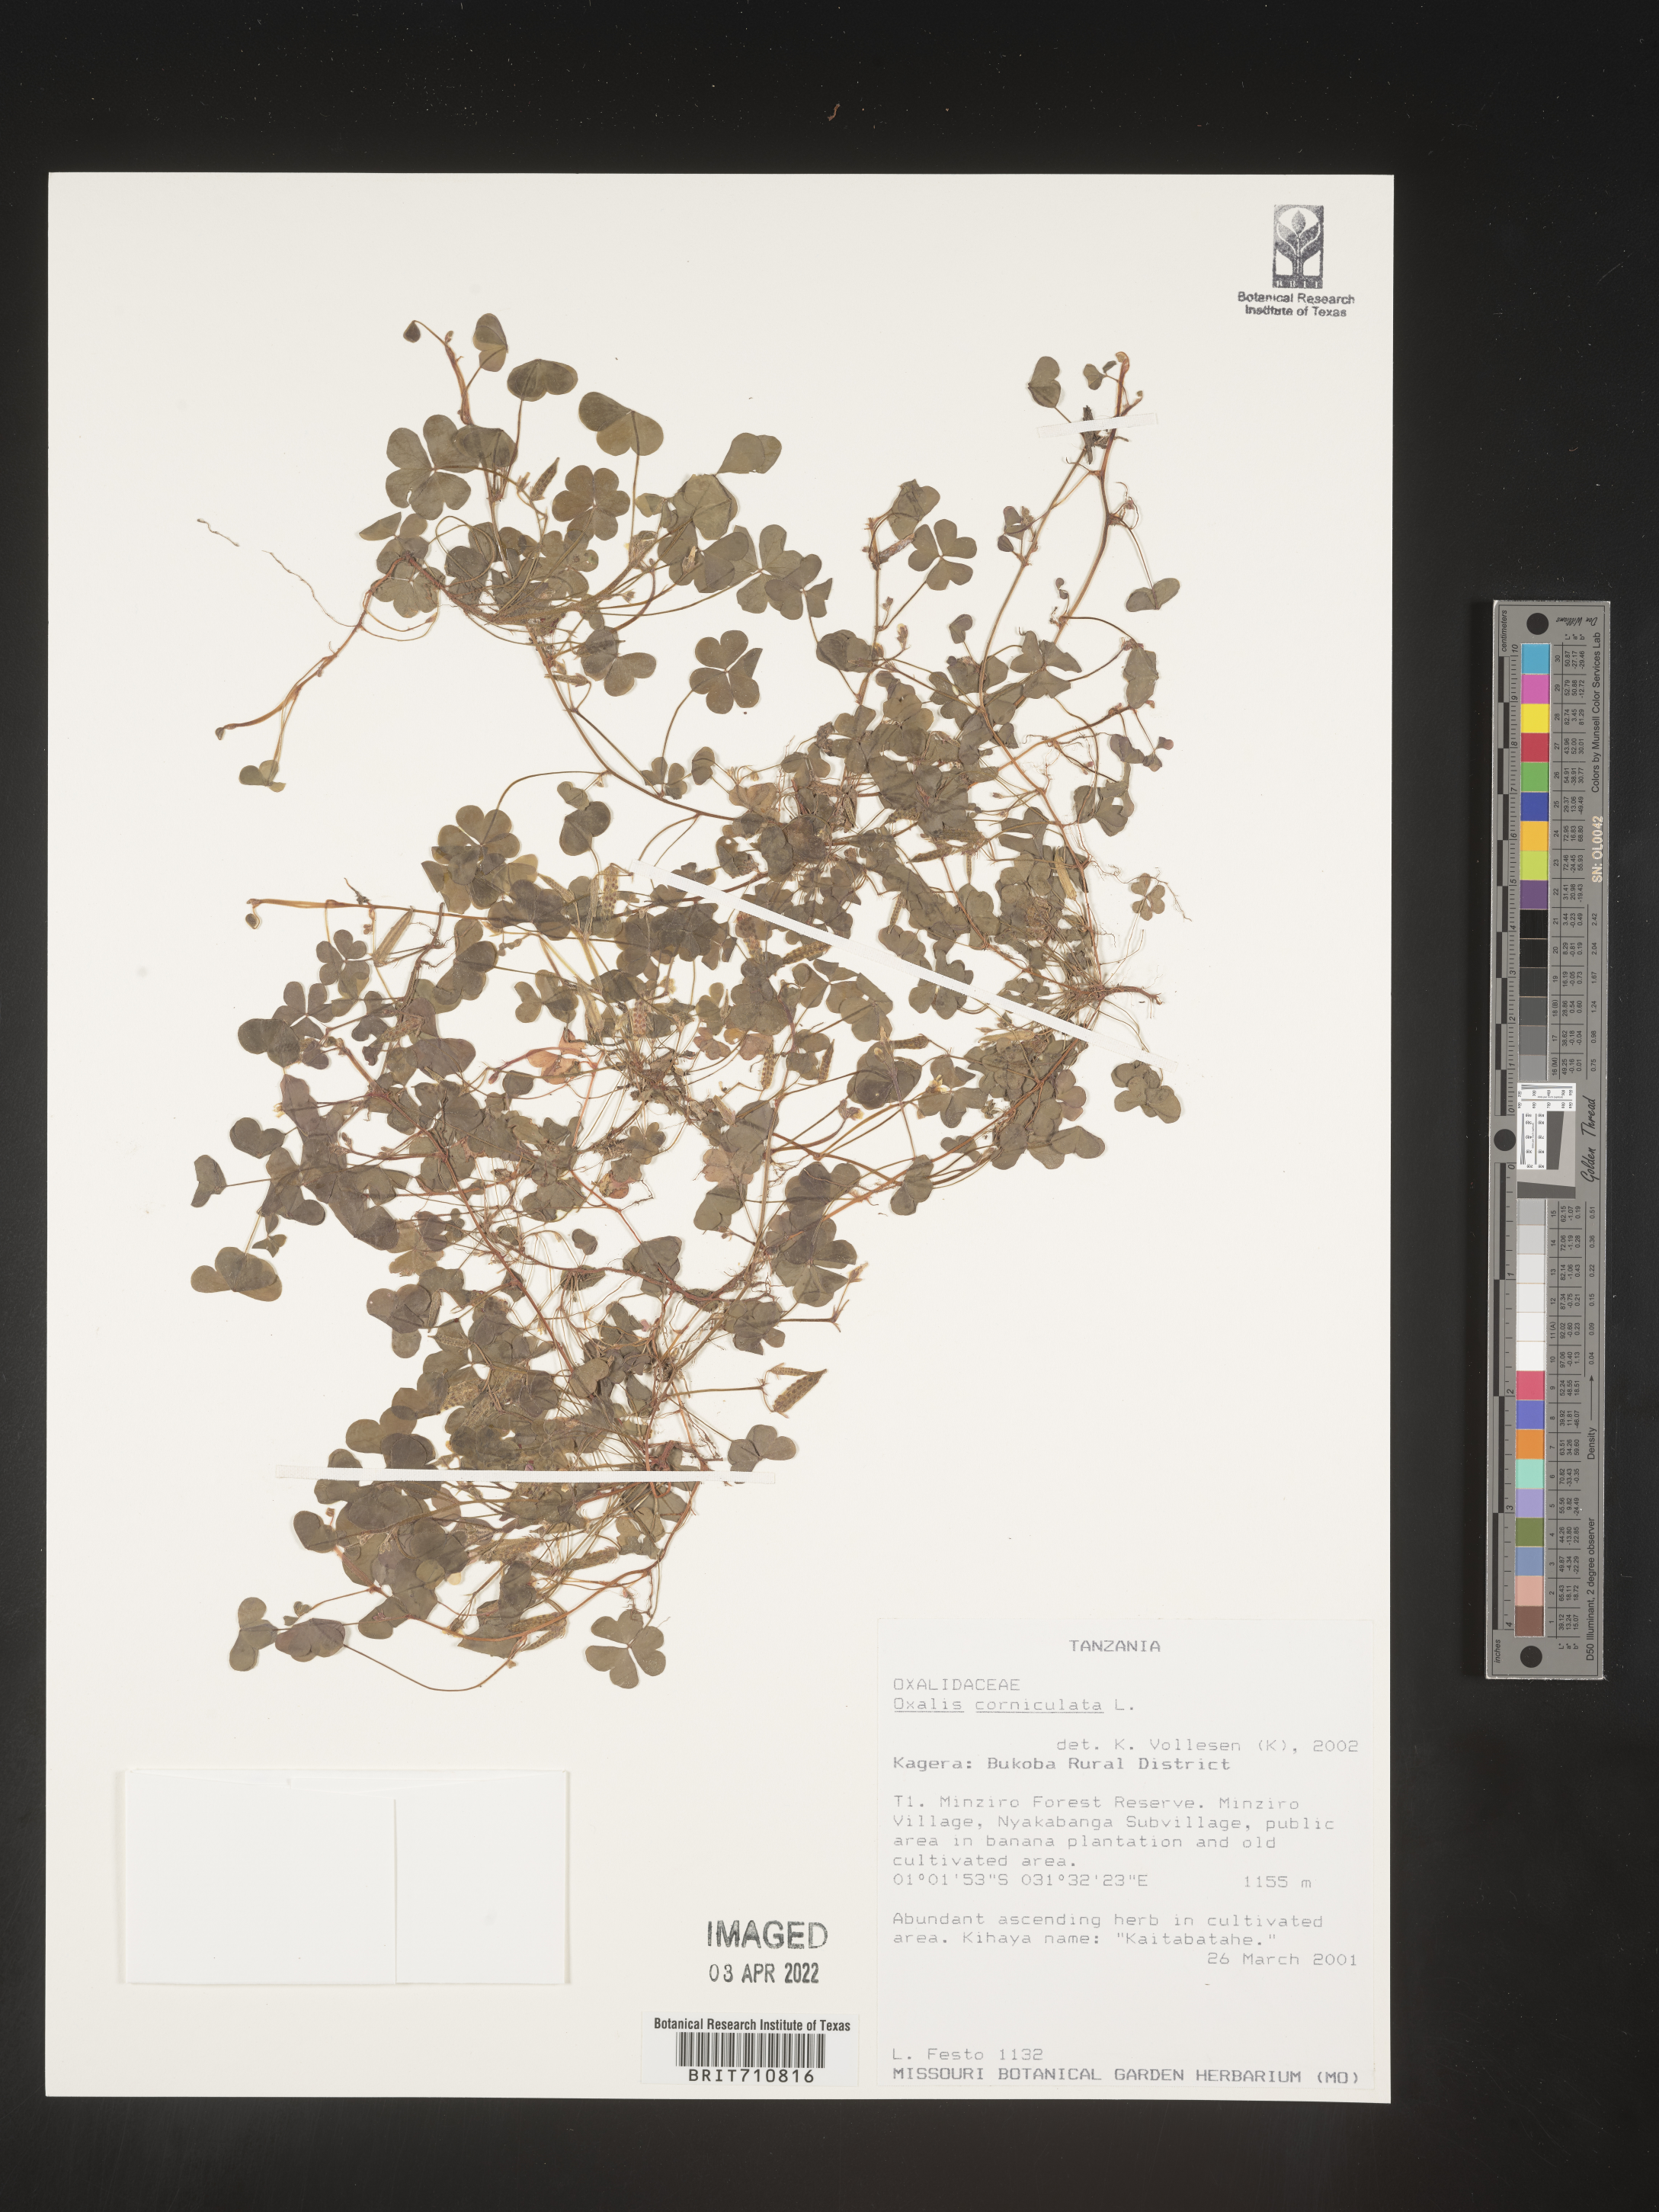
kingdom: Plantae
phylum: Tracheophyta
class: Magnoliopsida
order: Oxalidales
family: Oxalidaceae
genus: Oxalis
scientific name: Oxalis
